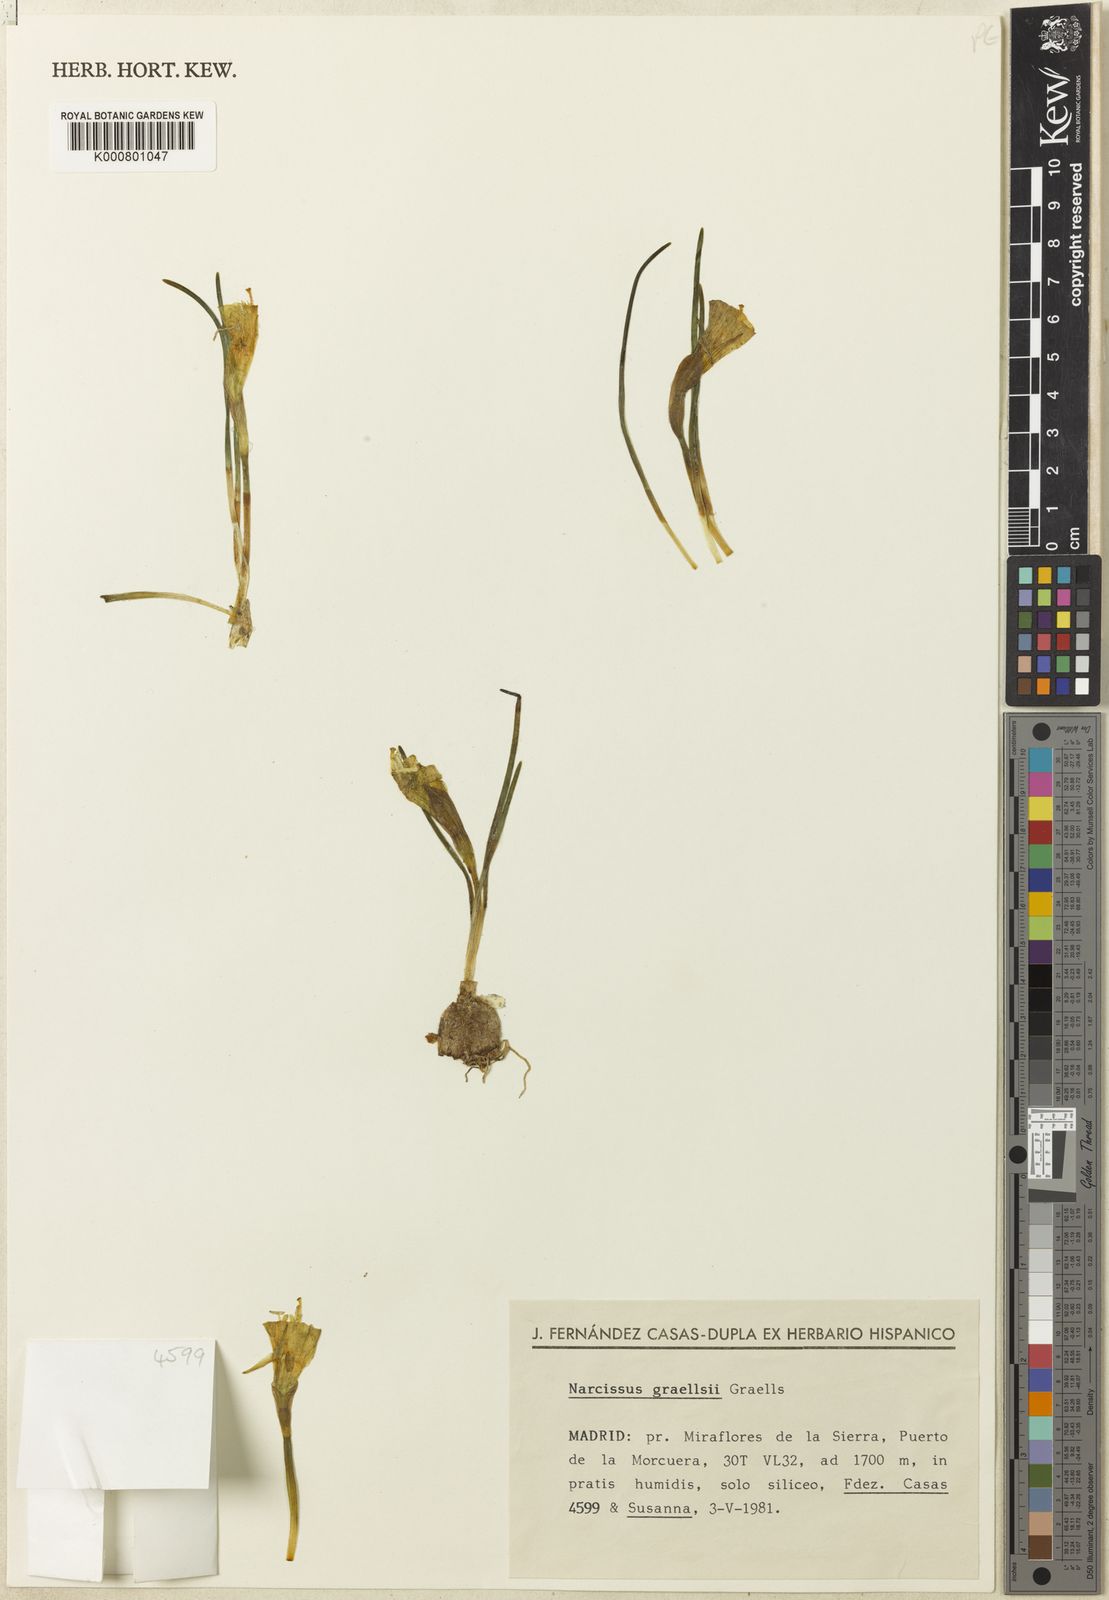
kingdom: Plantae
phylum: Tracheophyta
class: Liliopsida
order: Asparagales
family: Amaryllidaceae
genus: Narcissus
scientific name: Narcissus bulbocodium
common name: Hoop-petticoat daffodil
